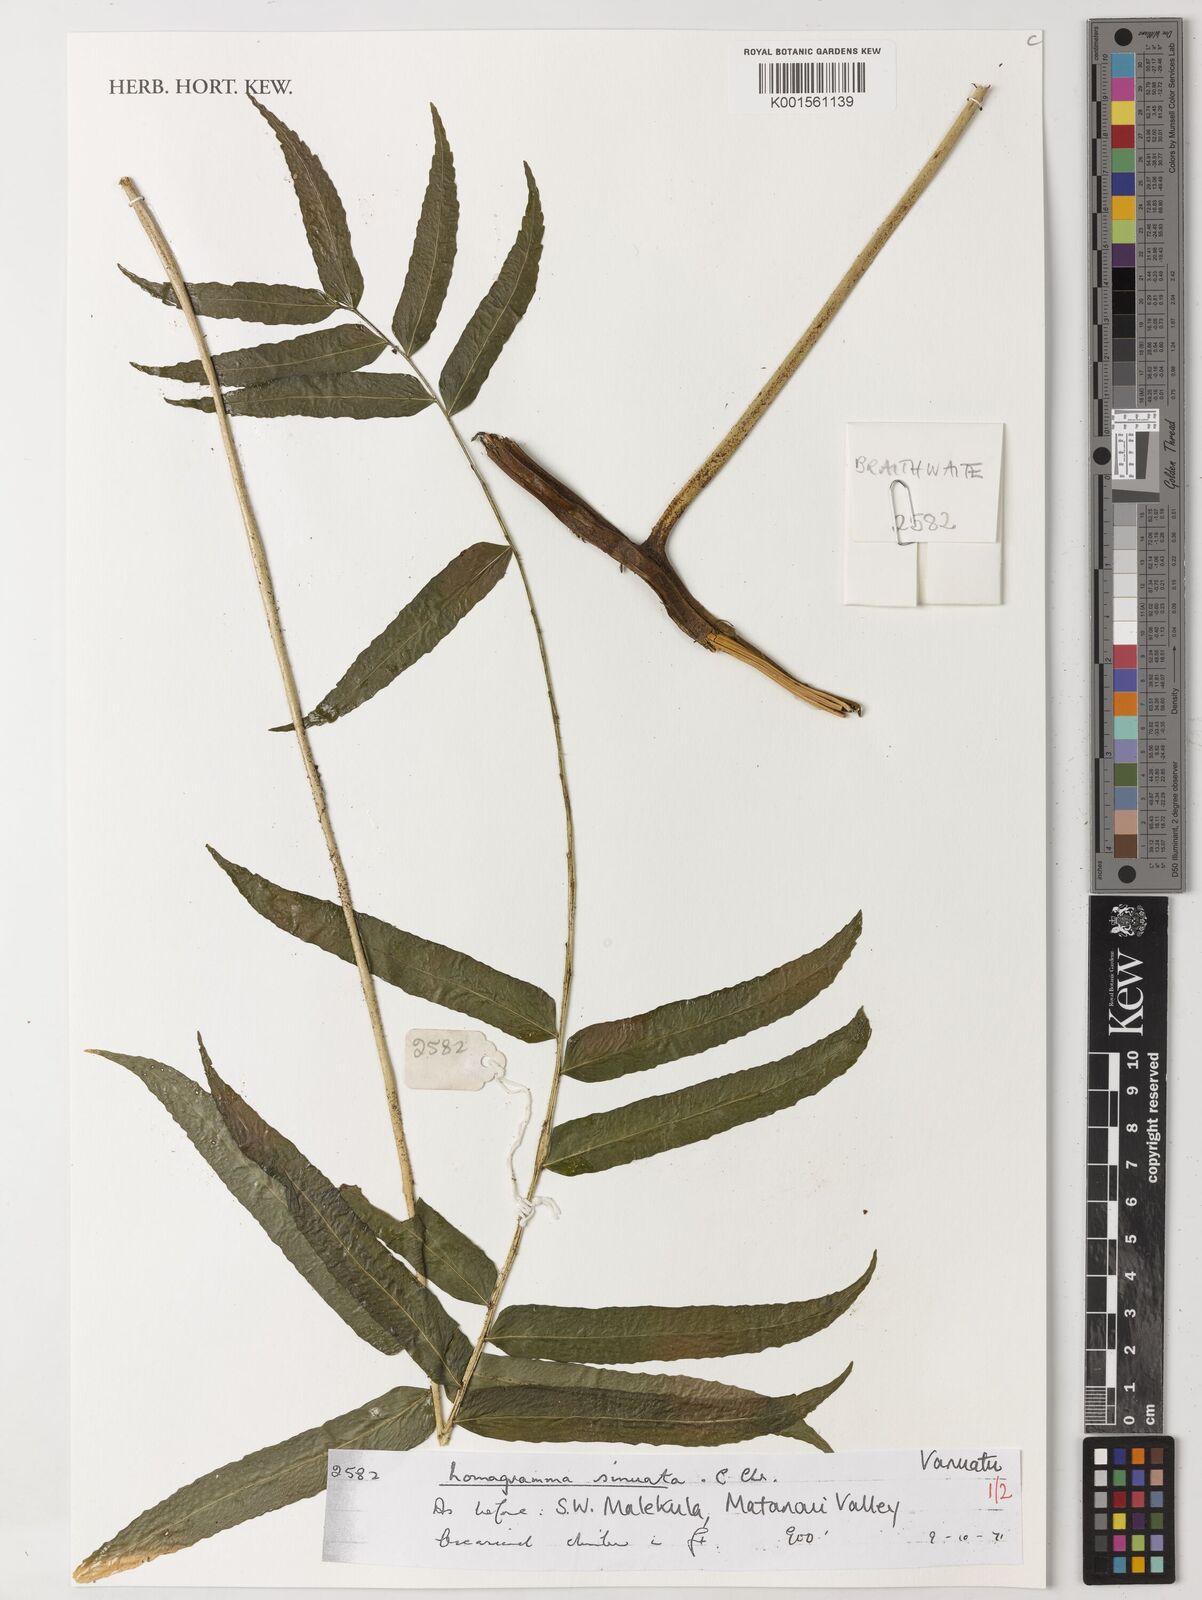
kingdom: Plantae
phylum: Tracheophyta
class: Polypodiopsida
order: Polypodiales
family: Dryopteridaceae
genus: Lomagramma
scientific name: Lomagramma sinuata
